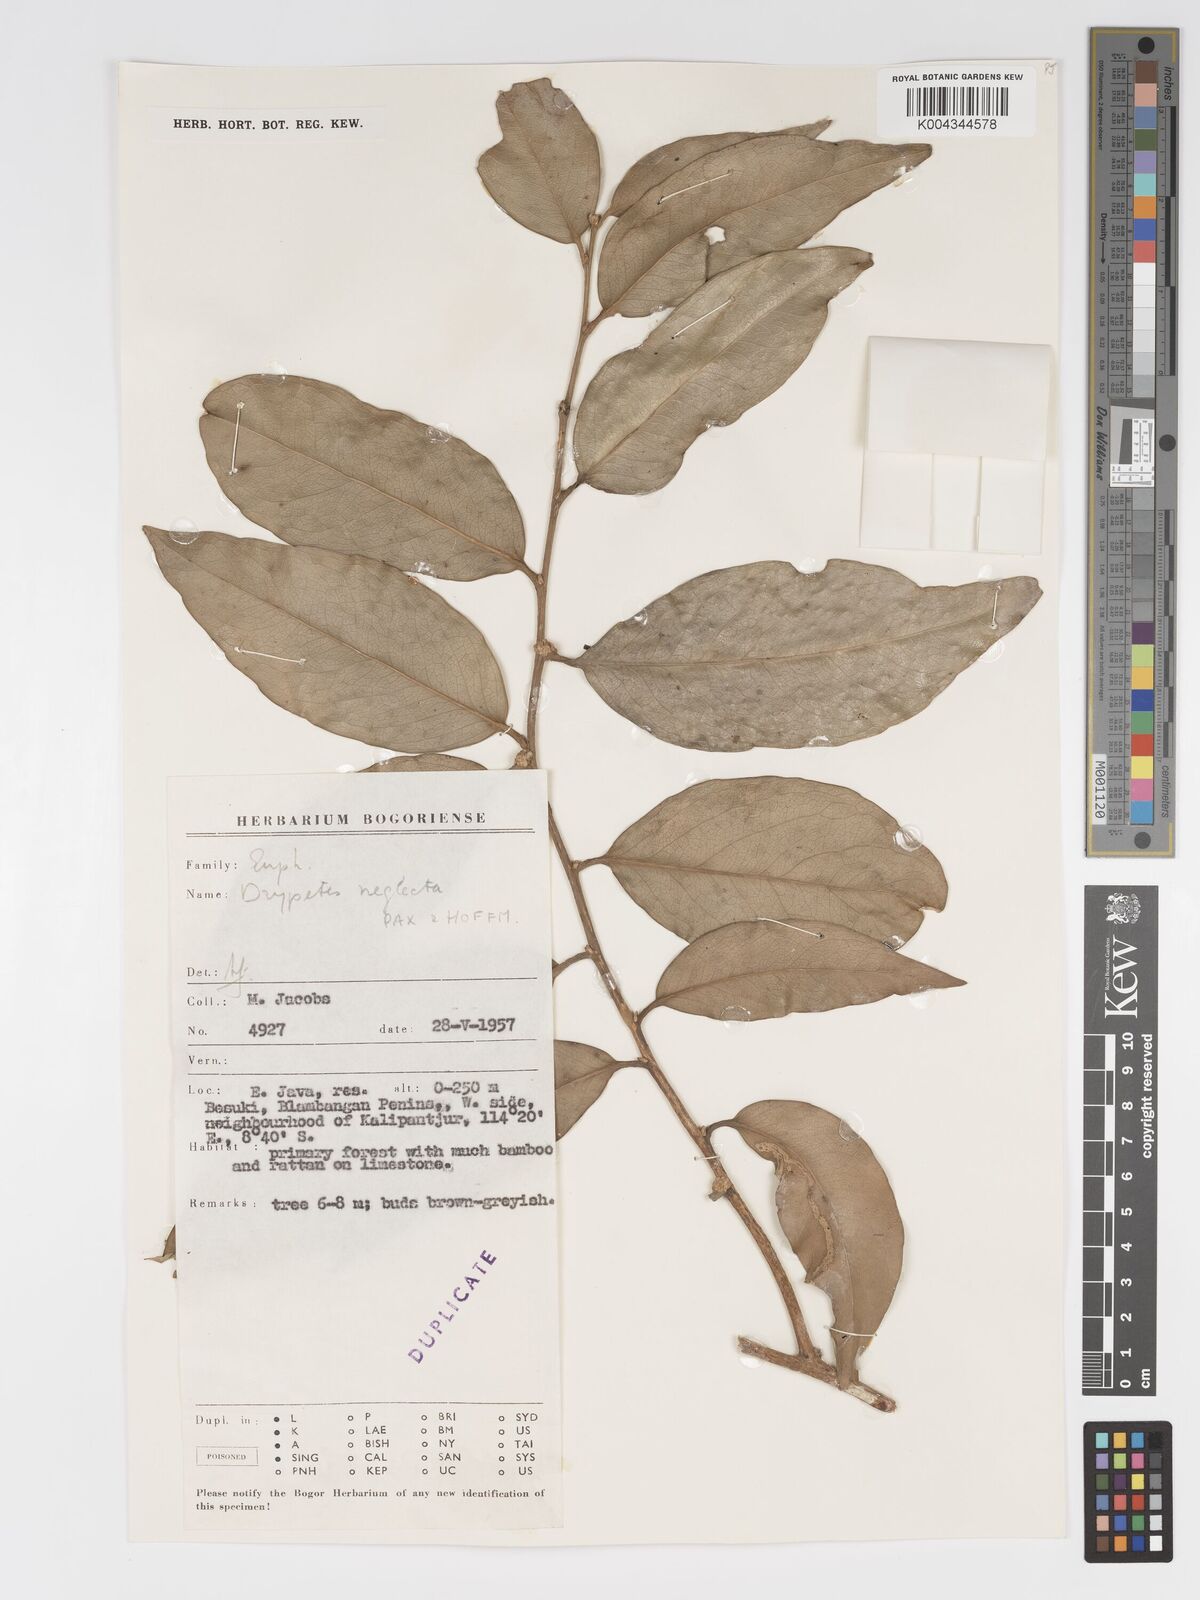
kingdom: Plantae
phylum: Tracheophyta
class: Magnoliopsida
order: Malpighiales
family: Putranjivaceae
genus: Drypetes
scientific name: Drypetes neglecta
